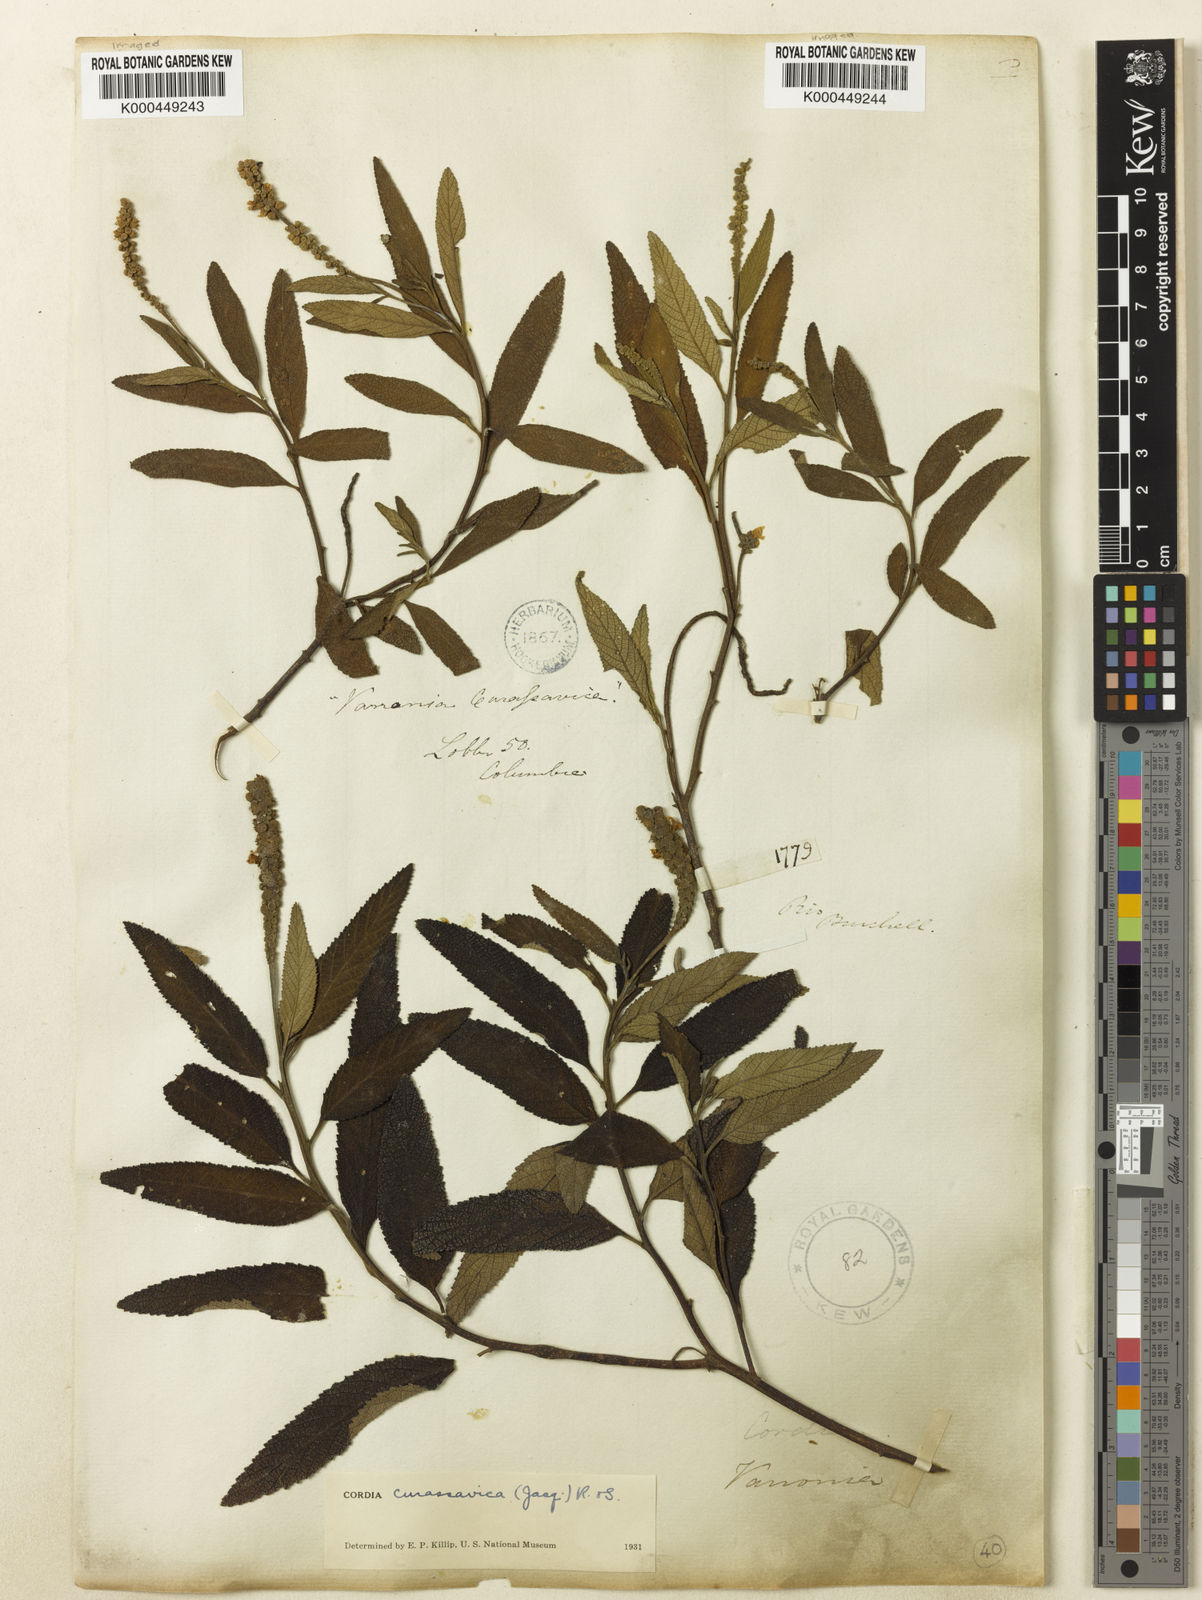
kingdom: Plantae
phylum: Tracheophyta
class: Magnoliopsida
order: Boraginales
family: Cordiaceae
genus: Varronia
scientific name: Varronia curassavica
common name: Black sage
